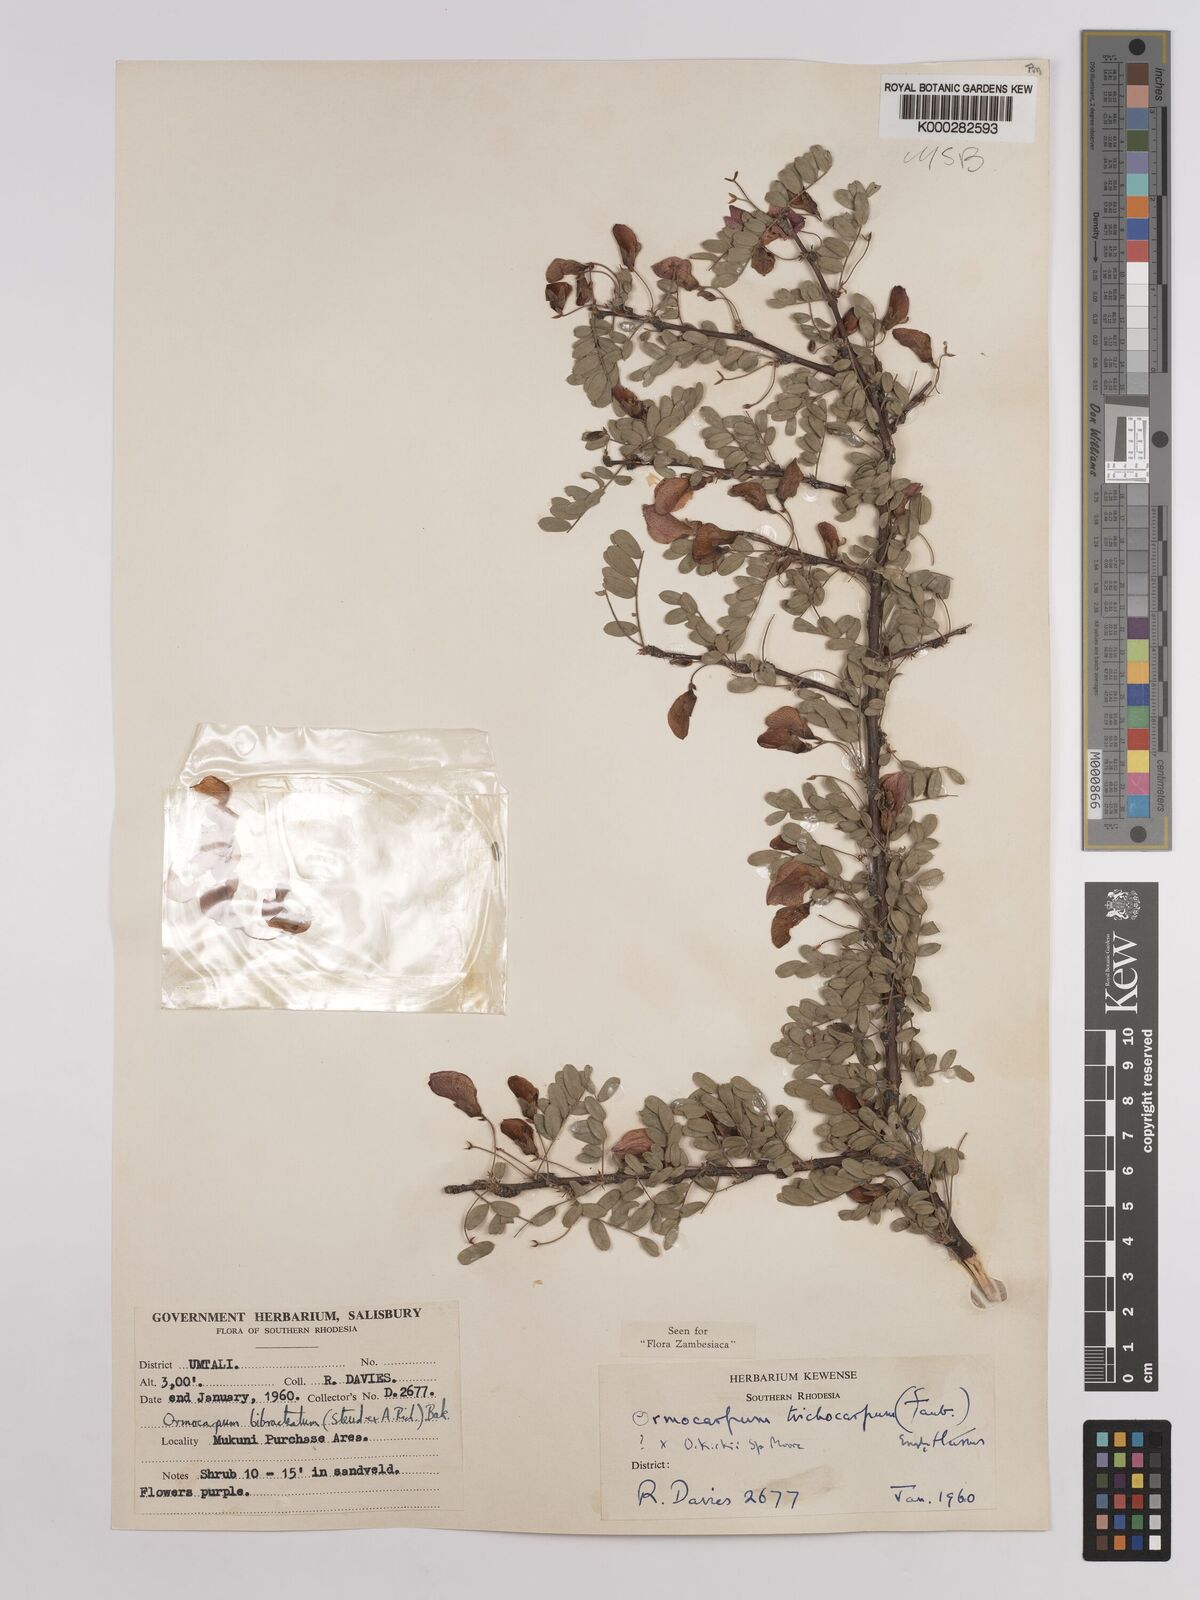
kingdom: Plantae
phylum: Tracheophyta
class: Magnoliopsida
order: Fabales
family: Fabaceae
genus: Ormocarpum
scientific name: Ormocarpum trichocarpum
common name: Caterpillar bush
